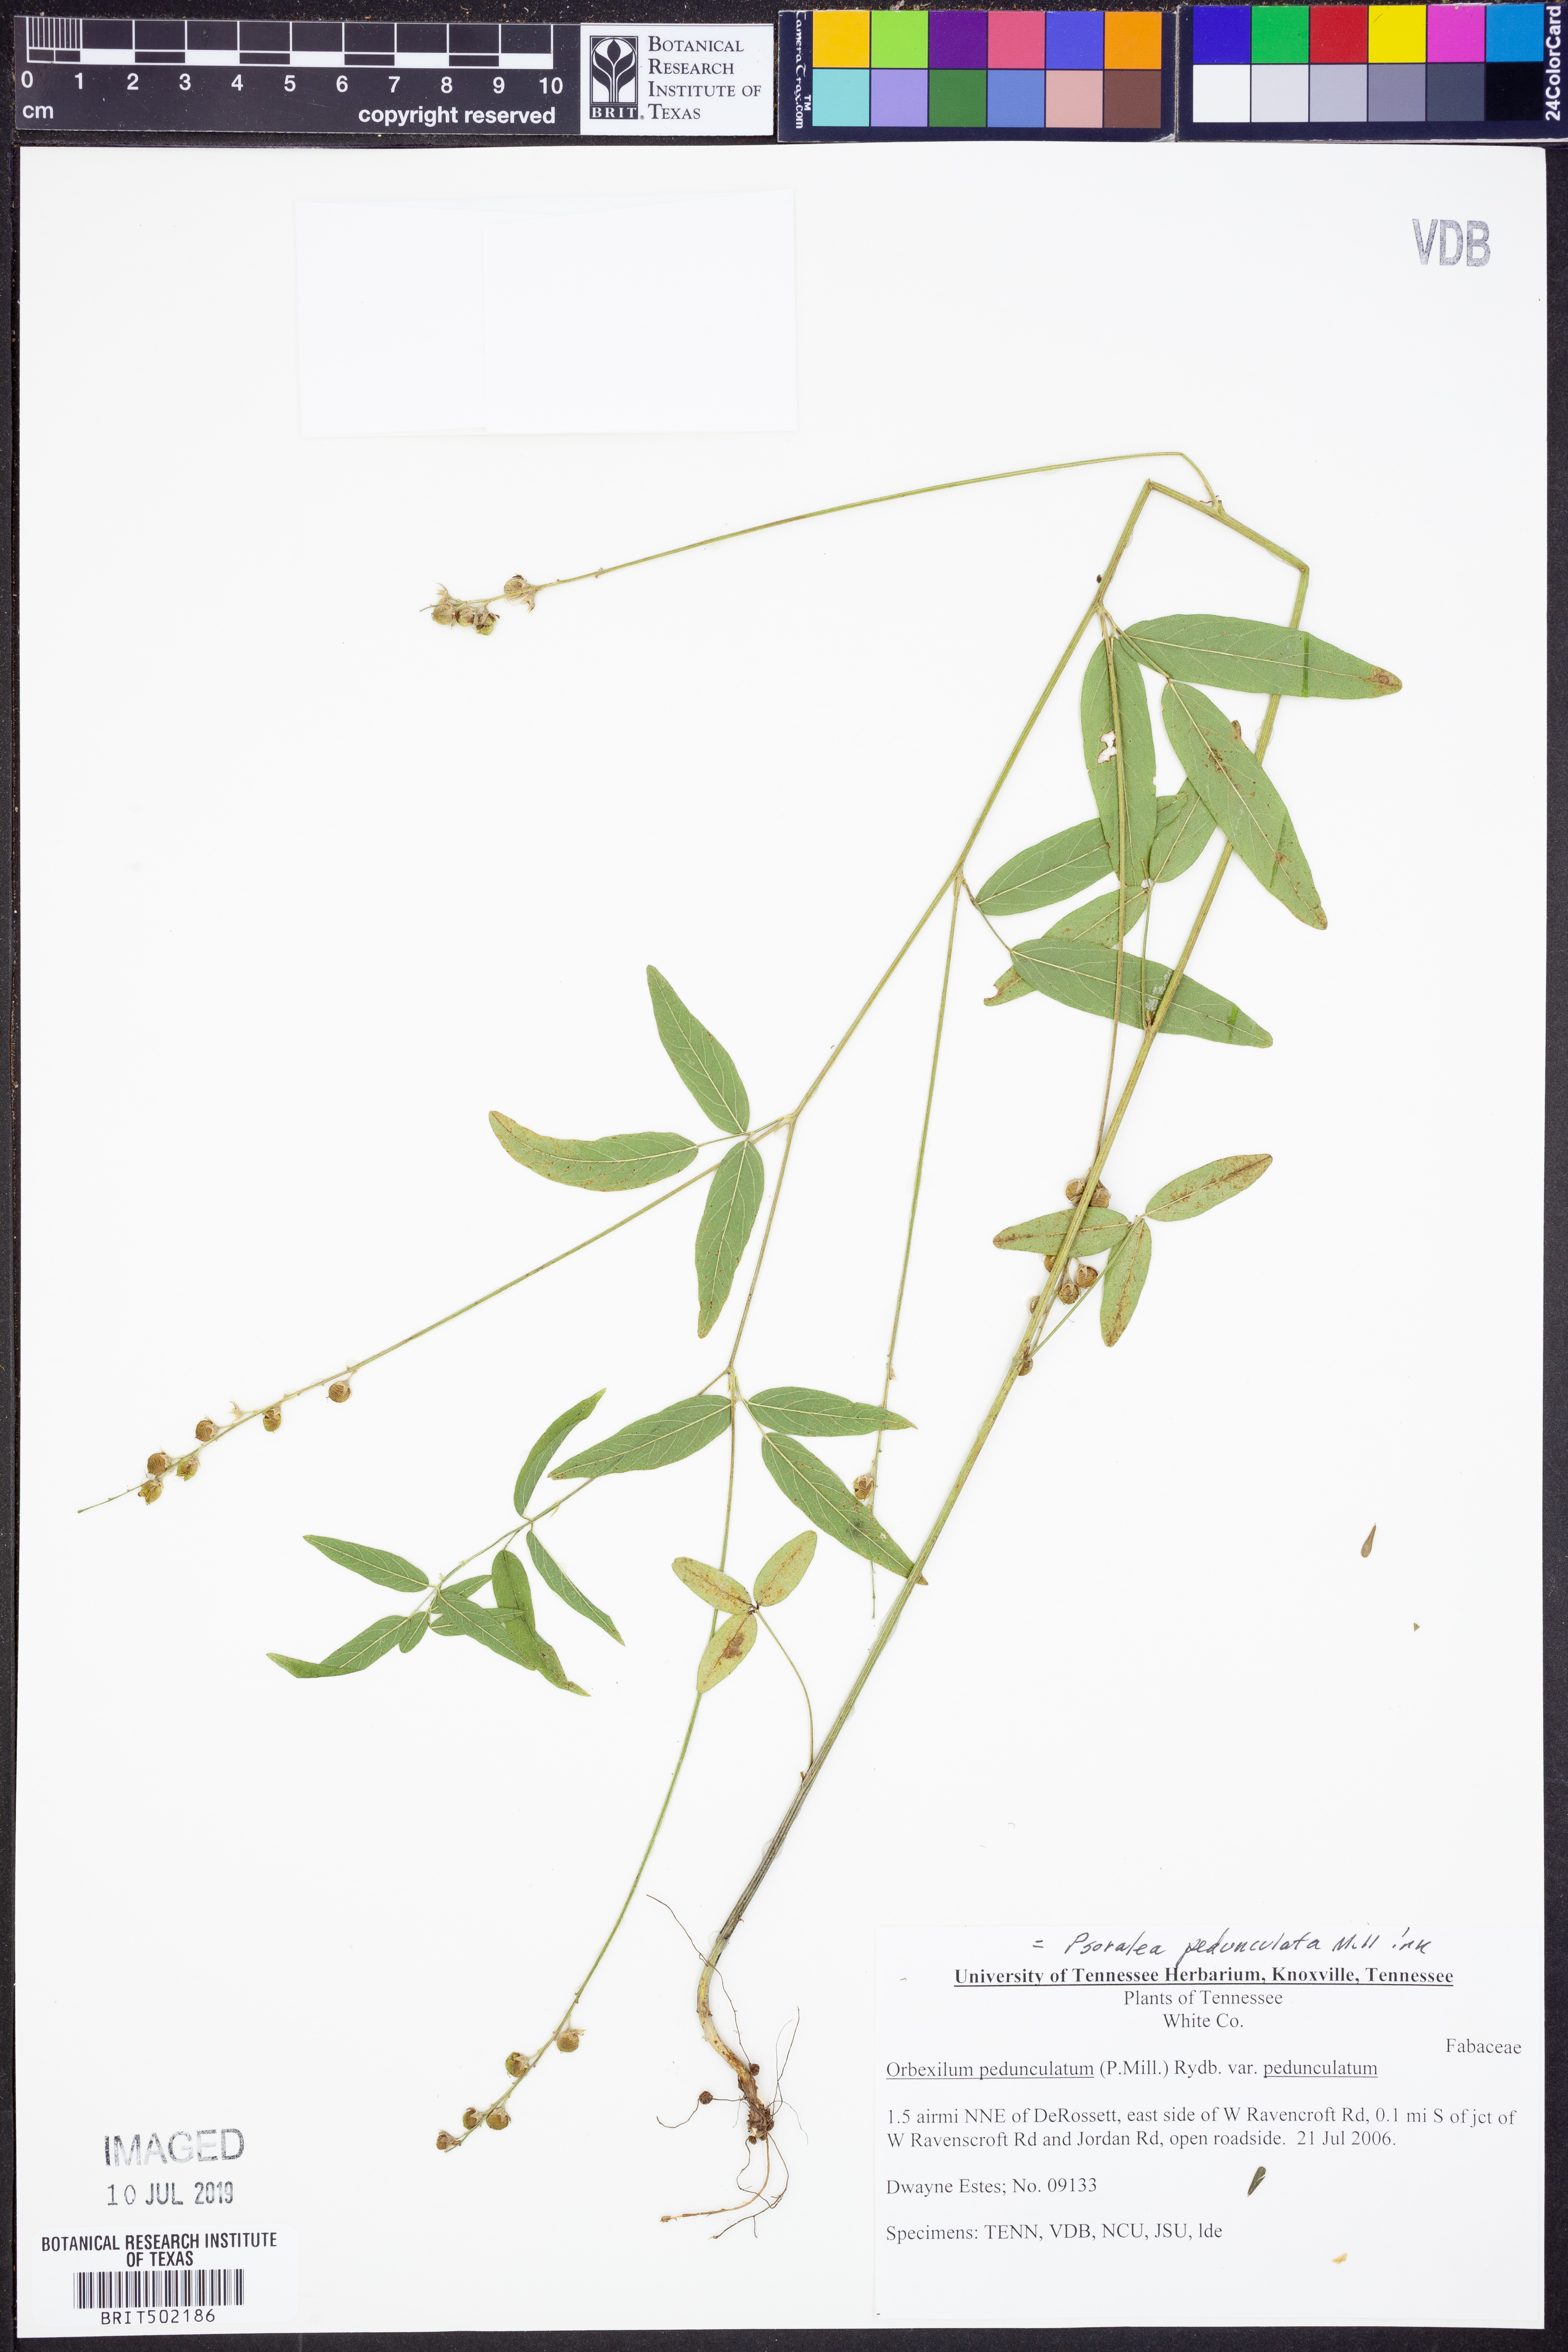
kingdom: Plantae
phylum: Tracheophyta
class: Magnoliopsida
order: Fabales
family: Fabaceae
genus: Orbexilum
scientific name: Orbexilum pedunculatum
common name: Sampson's snakeroot
